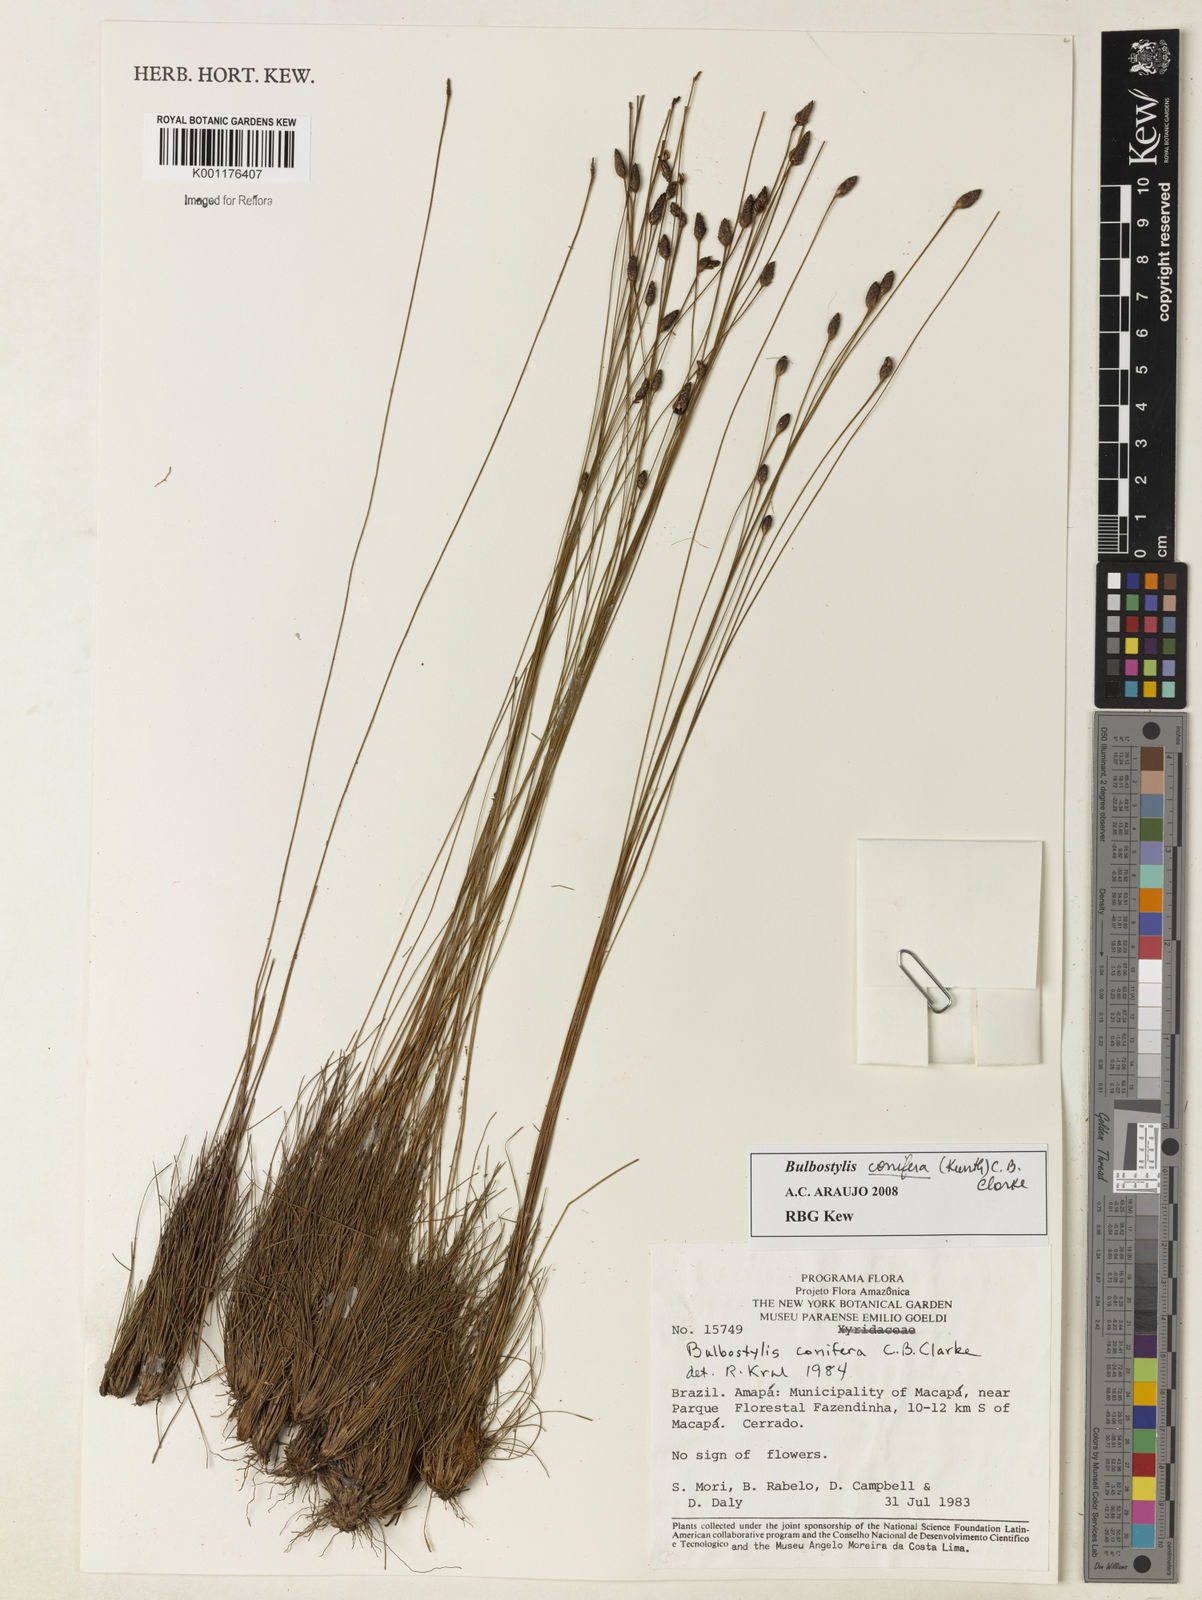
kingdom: Plantae
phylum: Tracheophyta
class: Liliopsida
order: Poales
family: Cyperaceae
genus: Bulbostylis
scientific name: Bulbostylis conifera
